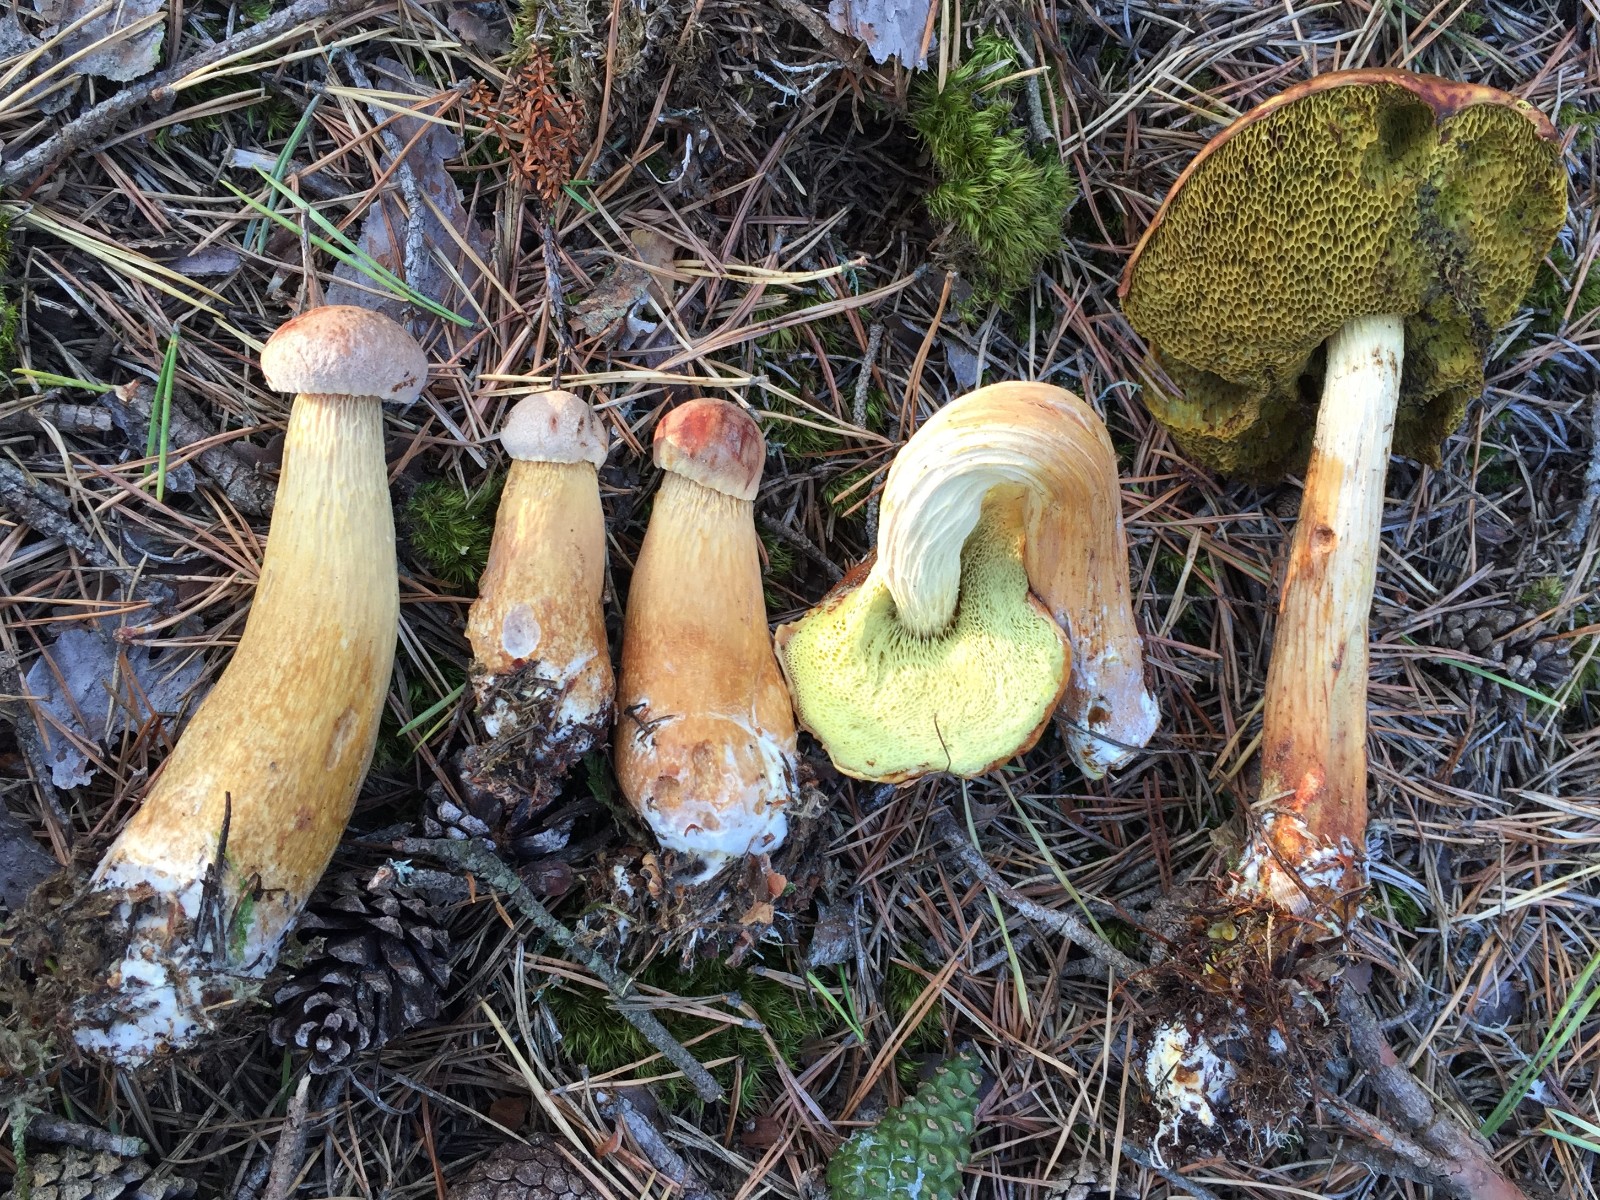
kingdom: Fungi
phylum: Basidiomycota
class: Agaricomycetes
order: Boletales
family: Boletaceae
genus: Aureoboletus
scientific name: Aureoboletus projectellus
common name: ribbestokket rørhat
